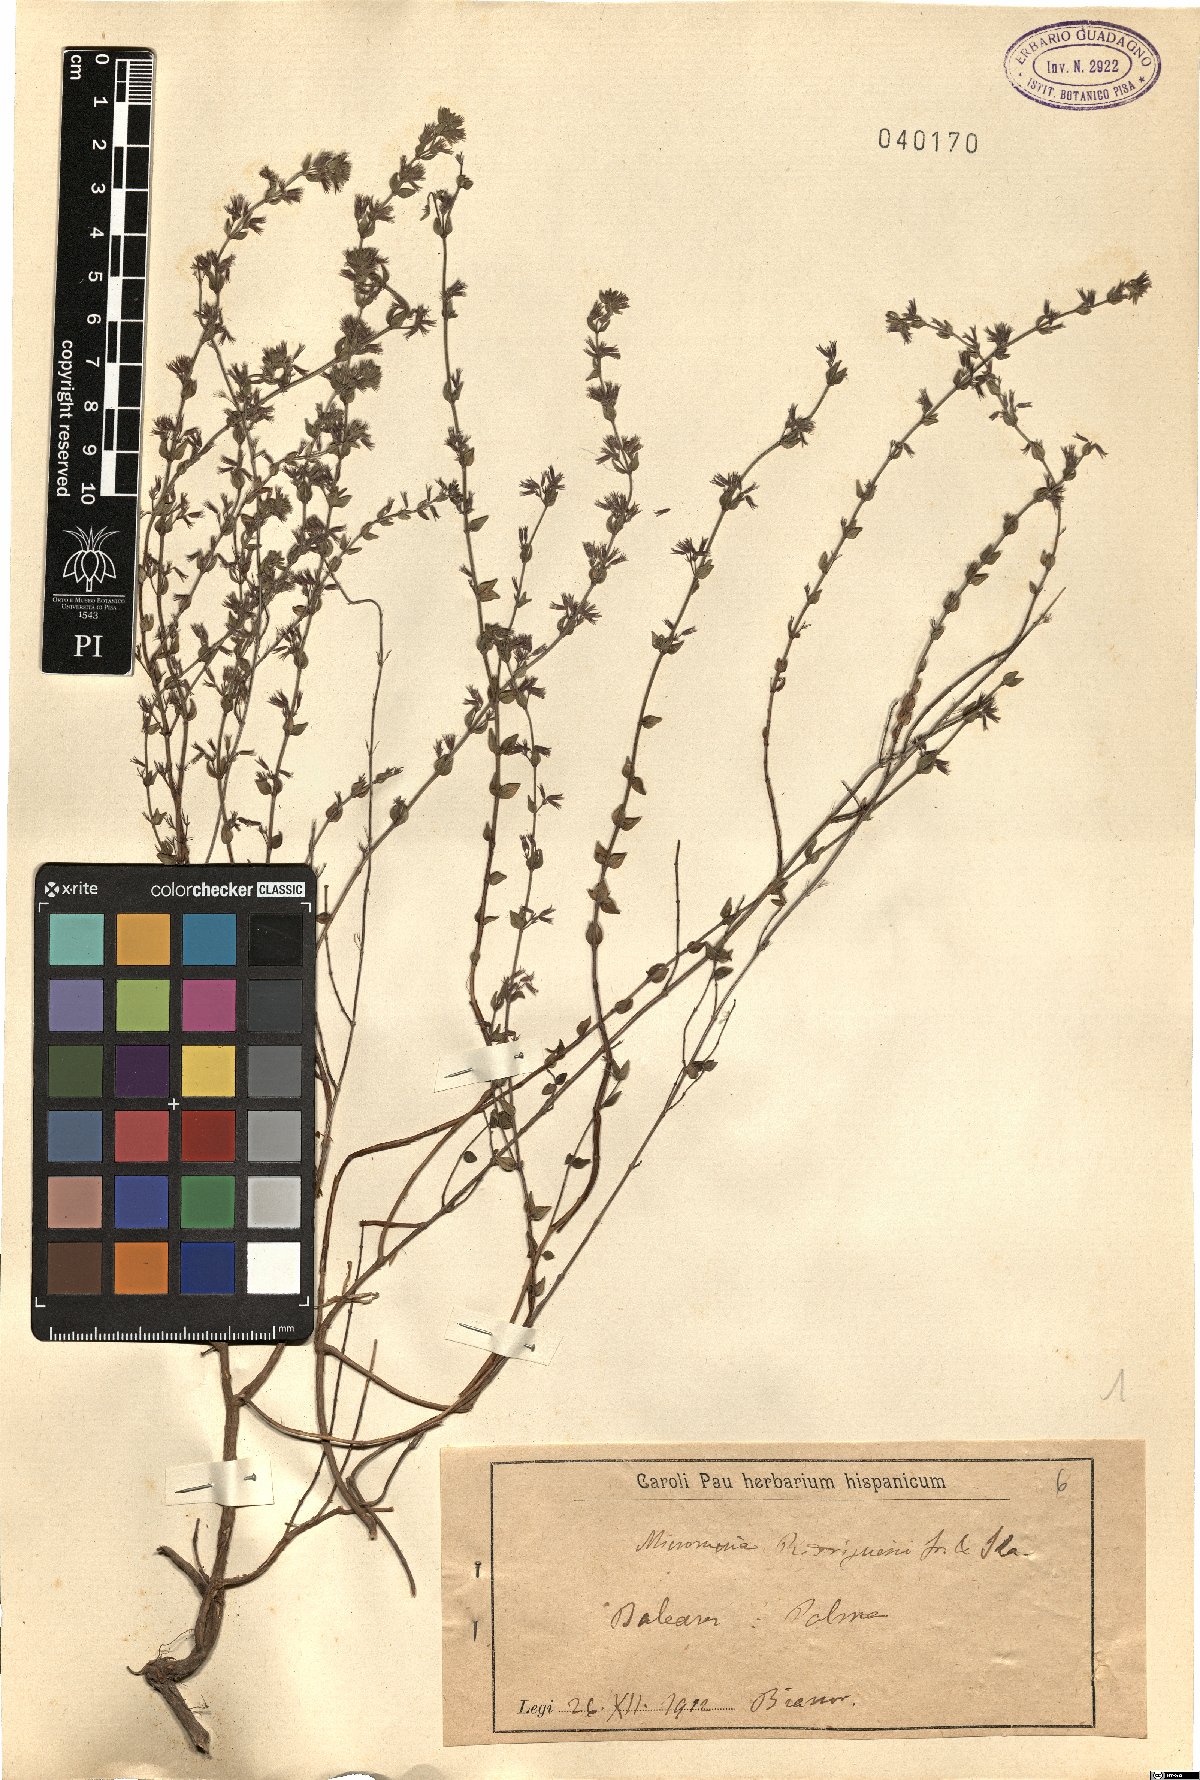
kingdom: Plantae
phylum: Tracheophyta
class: Magnoliopsida
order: Lamiales
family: Lamiaceae
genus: Micromeria
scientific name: Micromeria microphylla
